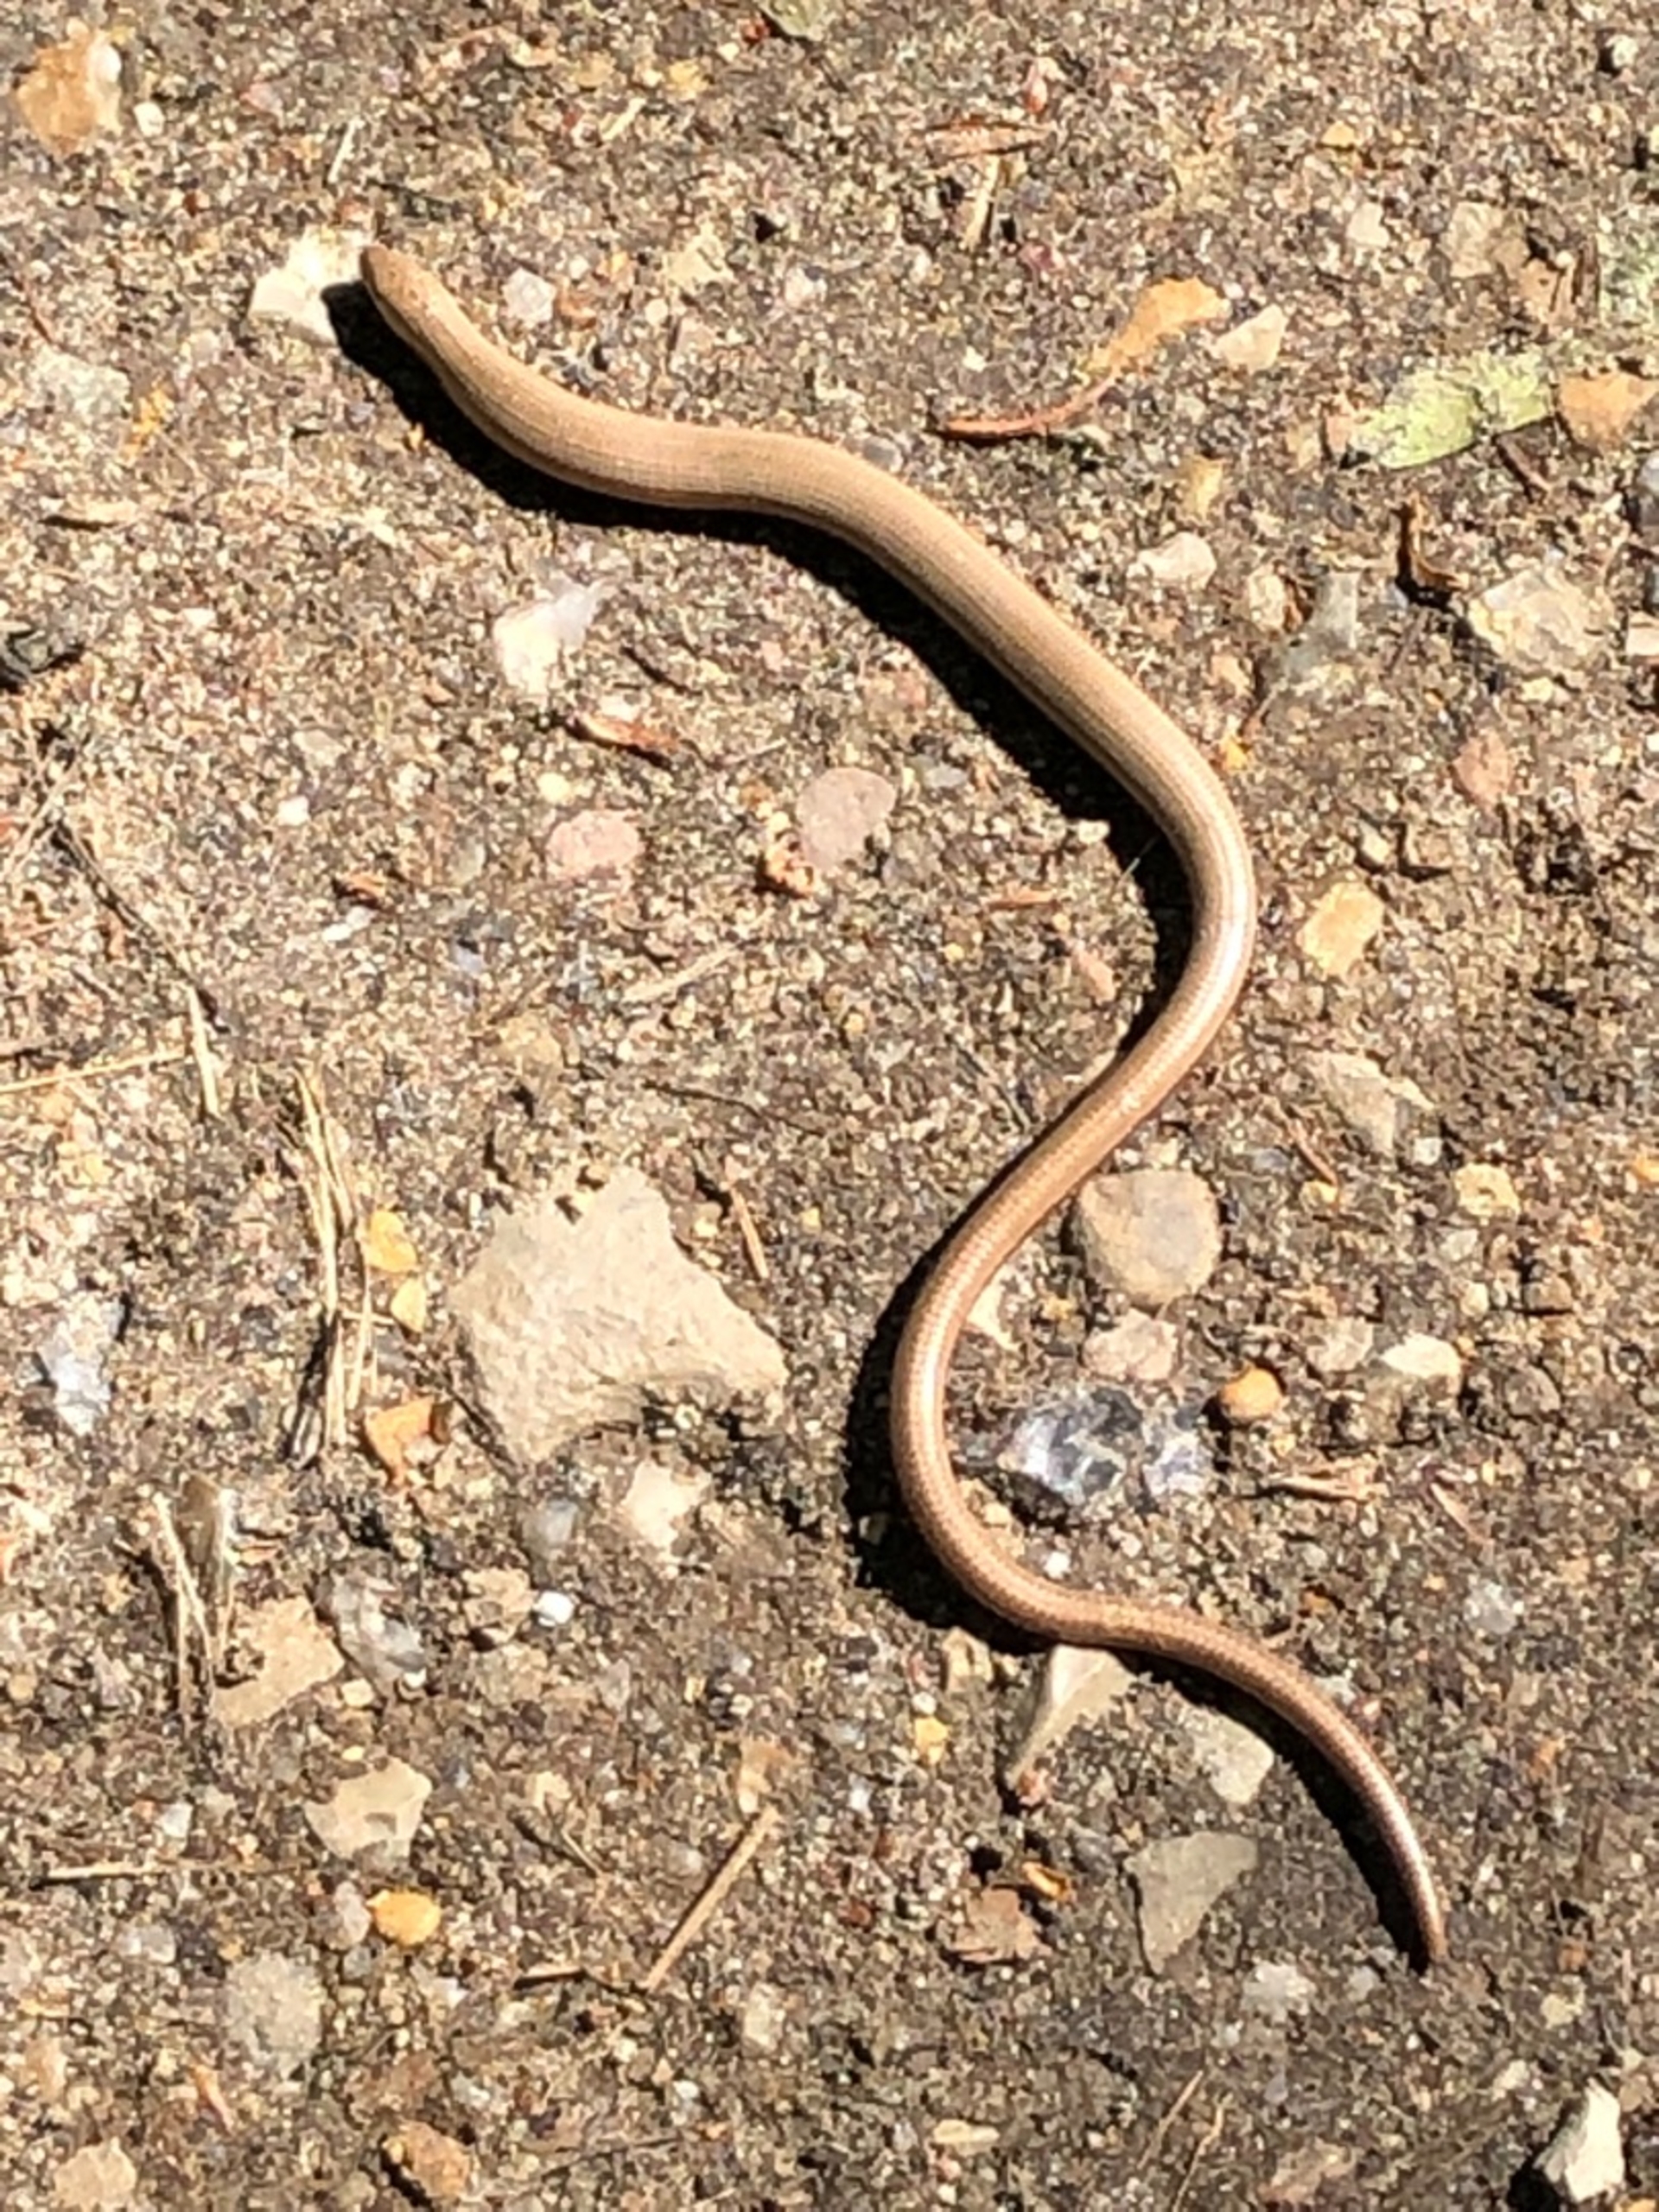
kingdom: Animalia
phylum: Chordata
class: Squamata
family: Anguidae
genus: Anguis
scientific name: Anguis fragilis
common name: Stålorm
